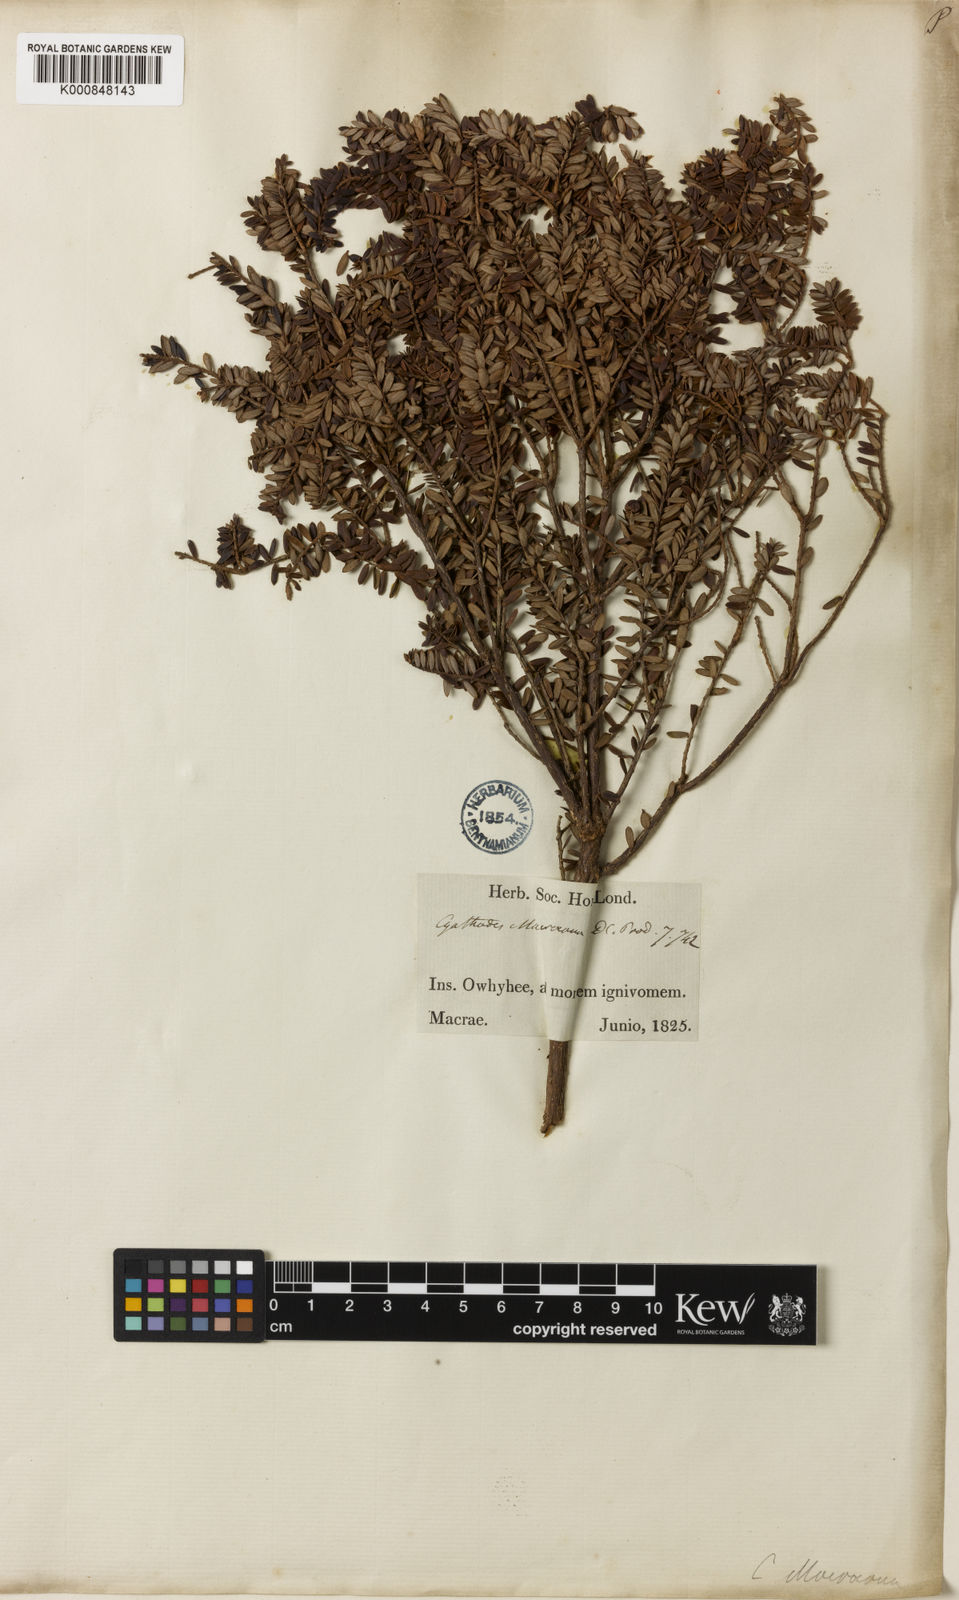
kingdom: Plantae
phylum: Tracheophyta
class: Magnoliopsida
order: Ericales
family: Ericaceae
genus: Leptecophylla
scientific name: Leptecophylla tameiameiae
